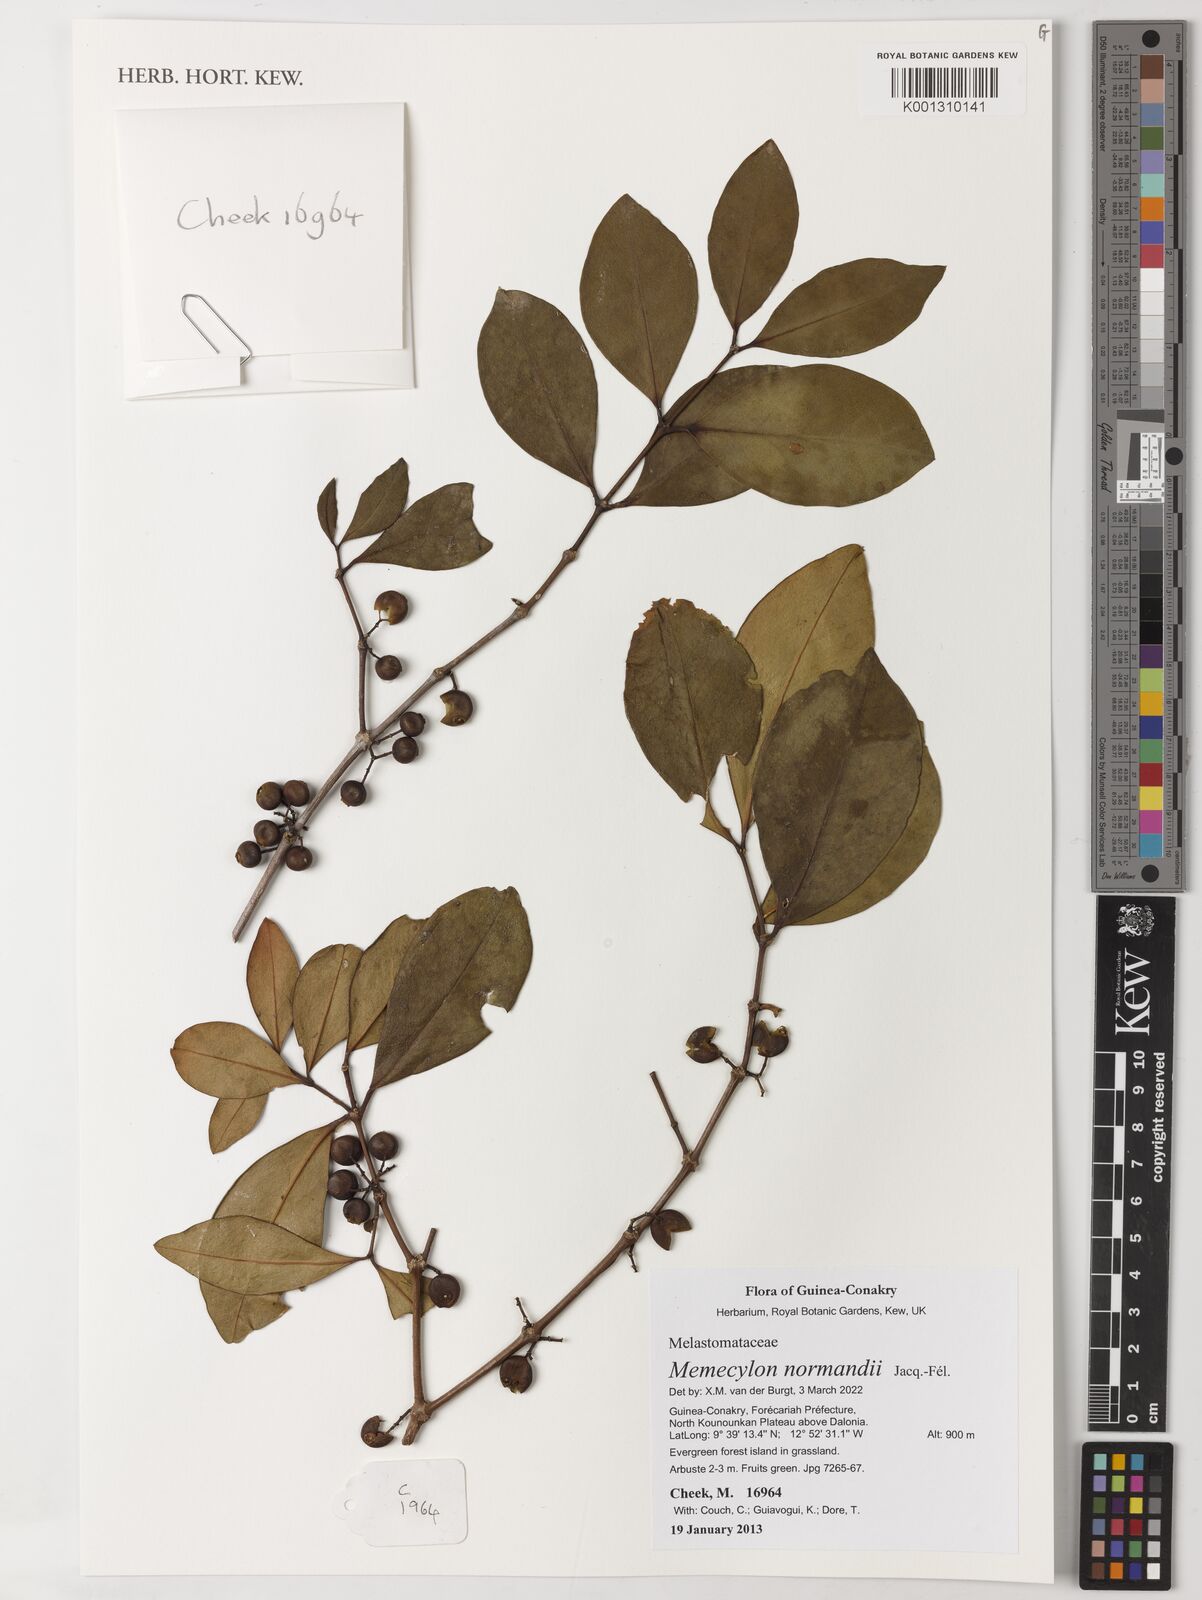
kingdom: Plantae
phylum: Tracheophyta
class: Magnoliopsida
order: Myrtales
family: Melastomataceae
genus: Memecylon
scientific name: Memecylon normandii
